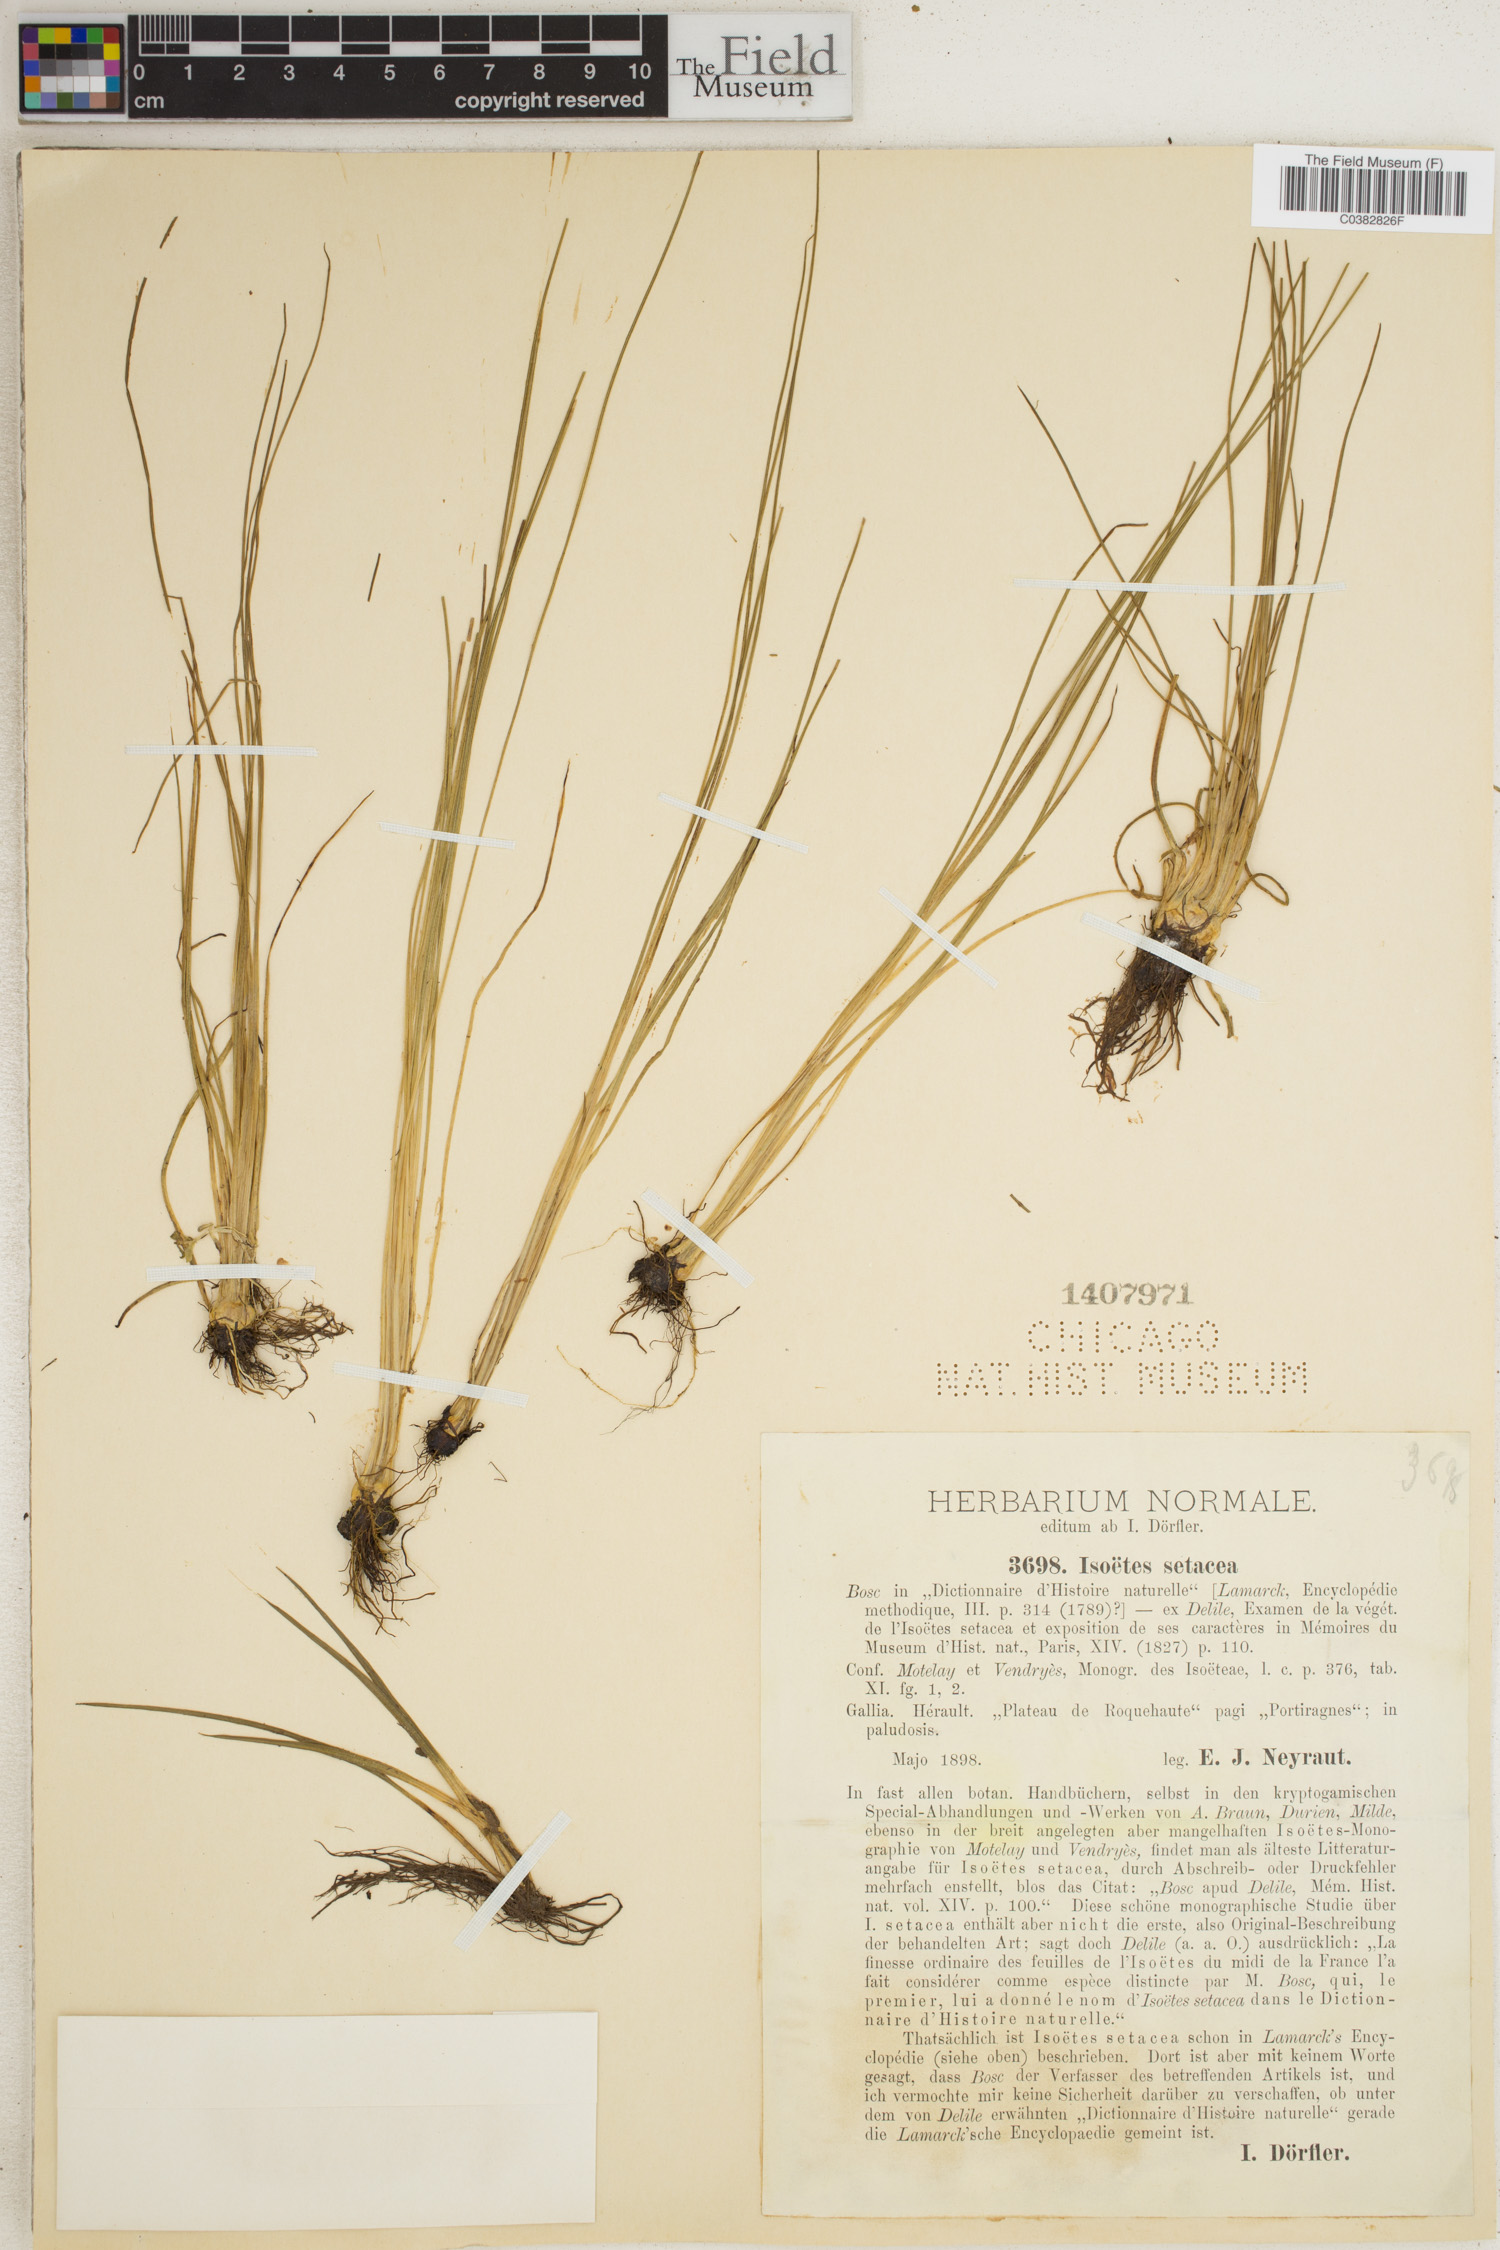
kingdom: Plantae
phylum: Tracheophyta
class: Lycopodiopsida
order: Isoetales
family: Isoetaceae
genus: Isoetes
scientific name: Isoetes lacustris
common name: Common quillwort
